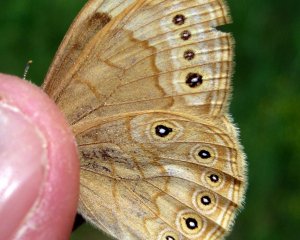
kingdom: Animalia
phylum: Arthropoda
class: Insecta
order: Lepidoptera
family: Nymphalidae
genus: Lethe
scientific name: Lethe eurydice
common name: Eyed Brown
